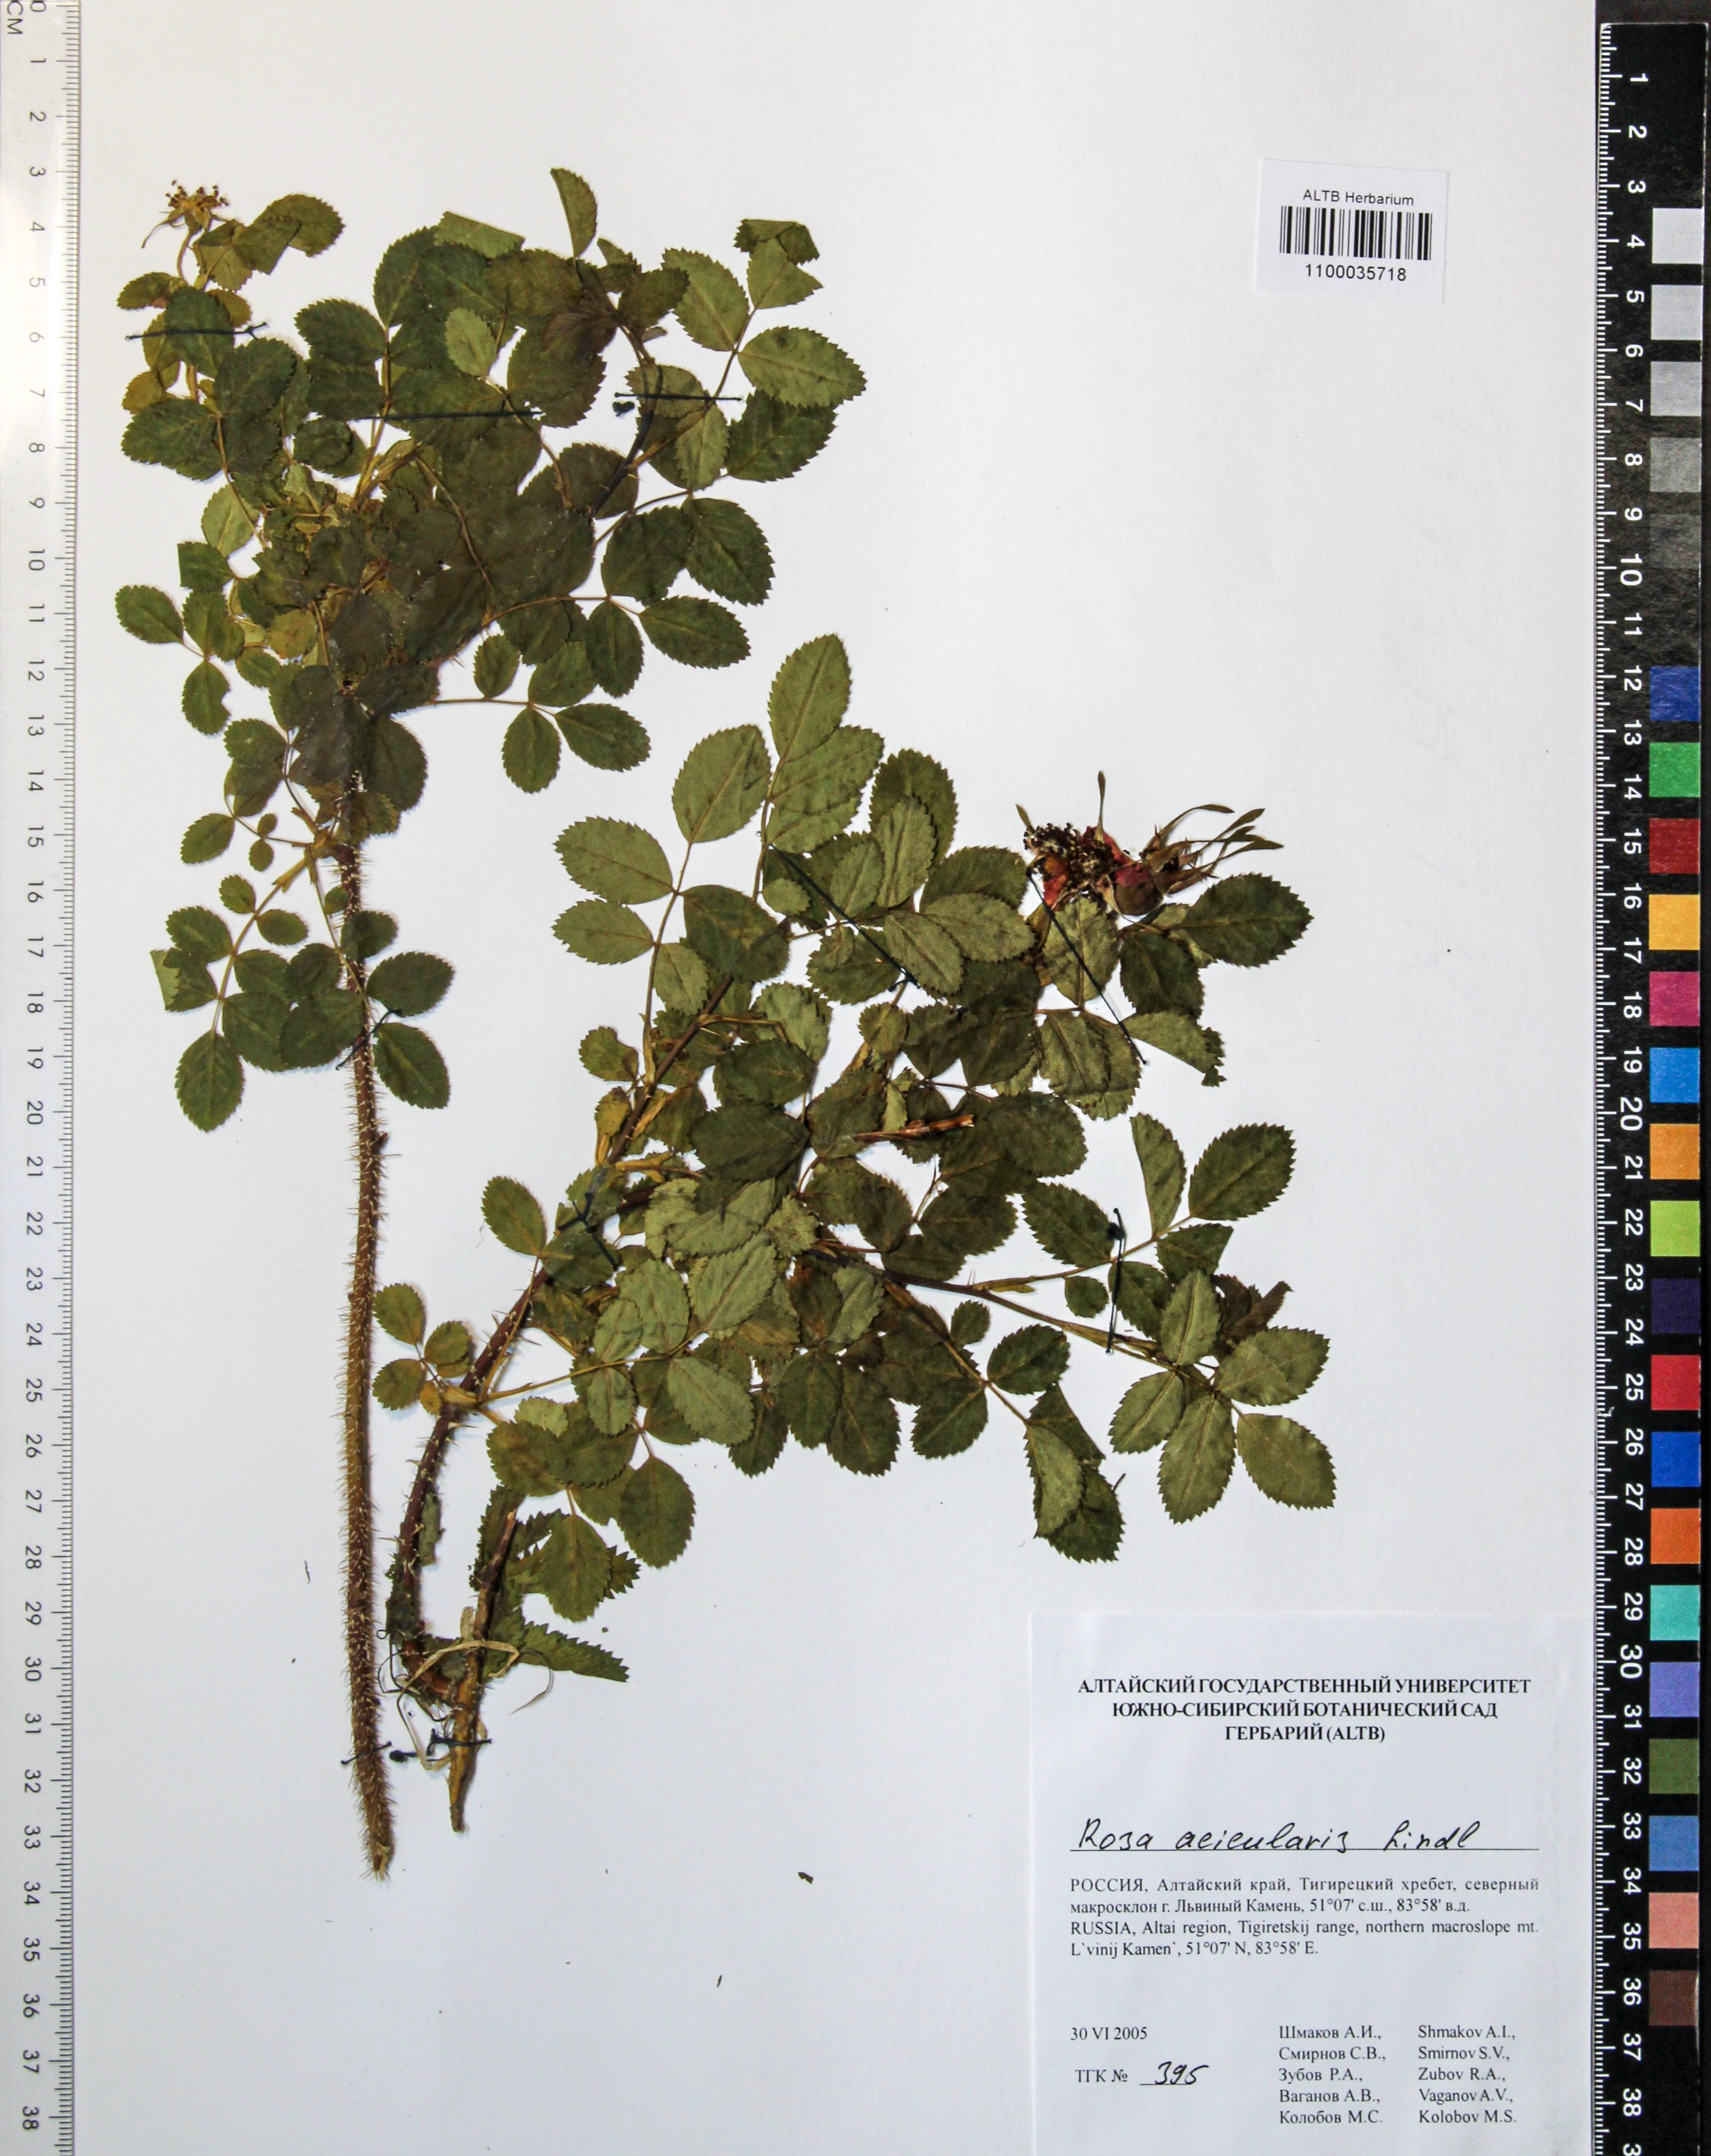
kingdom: Plantae
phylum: Tracheophyta
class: Magnoliopsida
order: Rosales
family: Rosaceae
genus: Rosa
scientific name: Rosa acicularis
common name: Prickly rose
